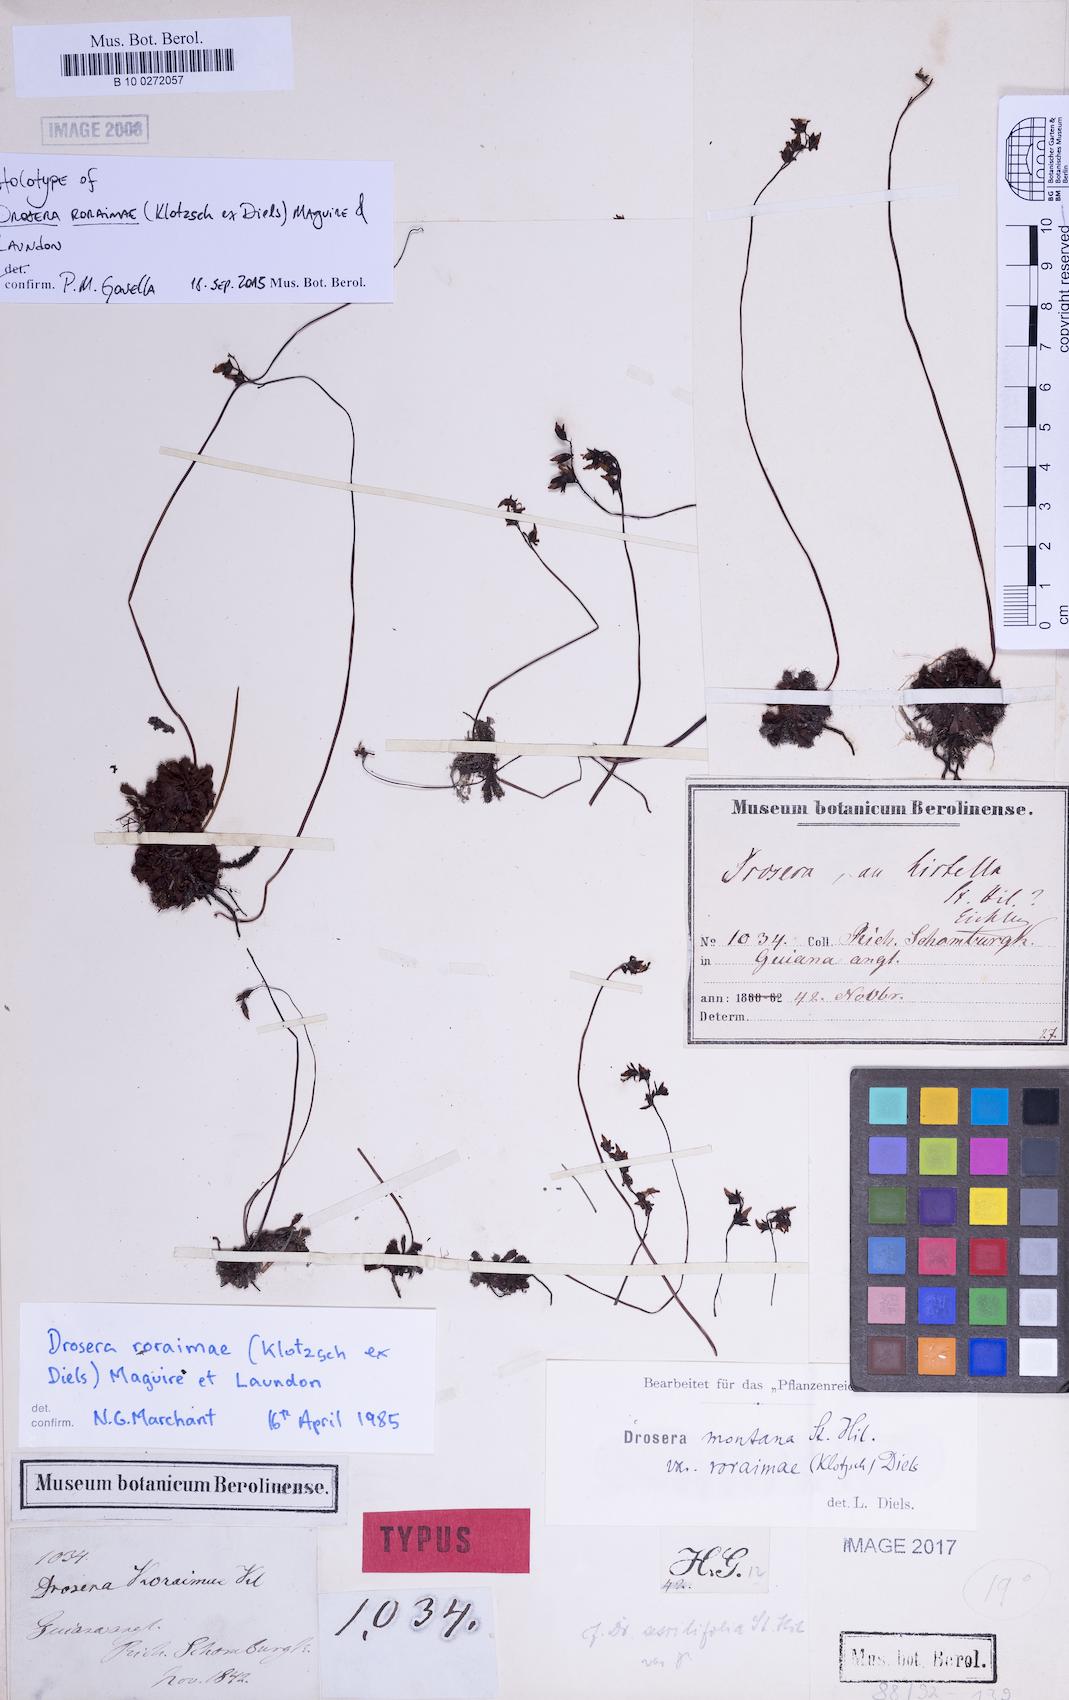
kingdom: Plantae
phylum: Tracheophyta
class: Magnoliopsida
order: Caryophyllales
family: Droseraceae
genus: Drosera
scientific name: Drosera roraimae
